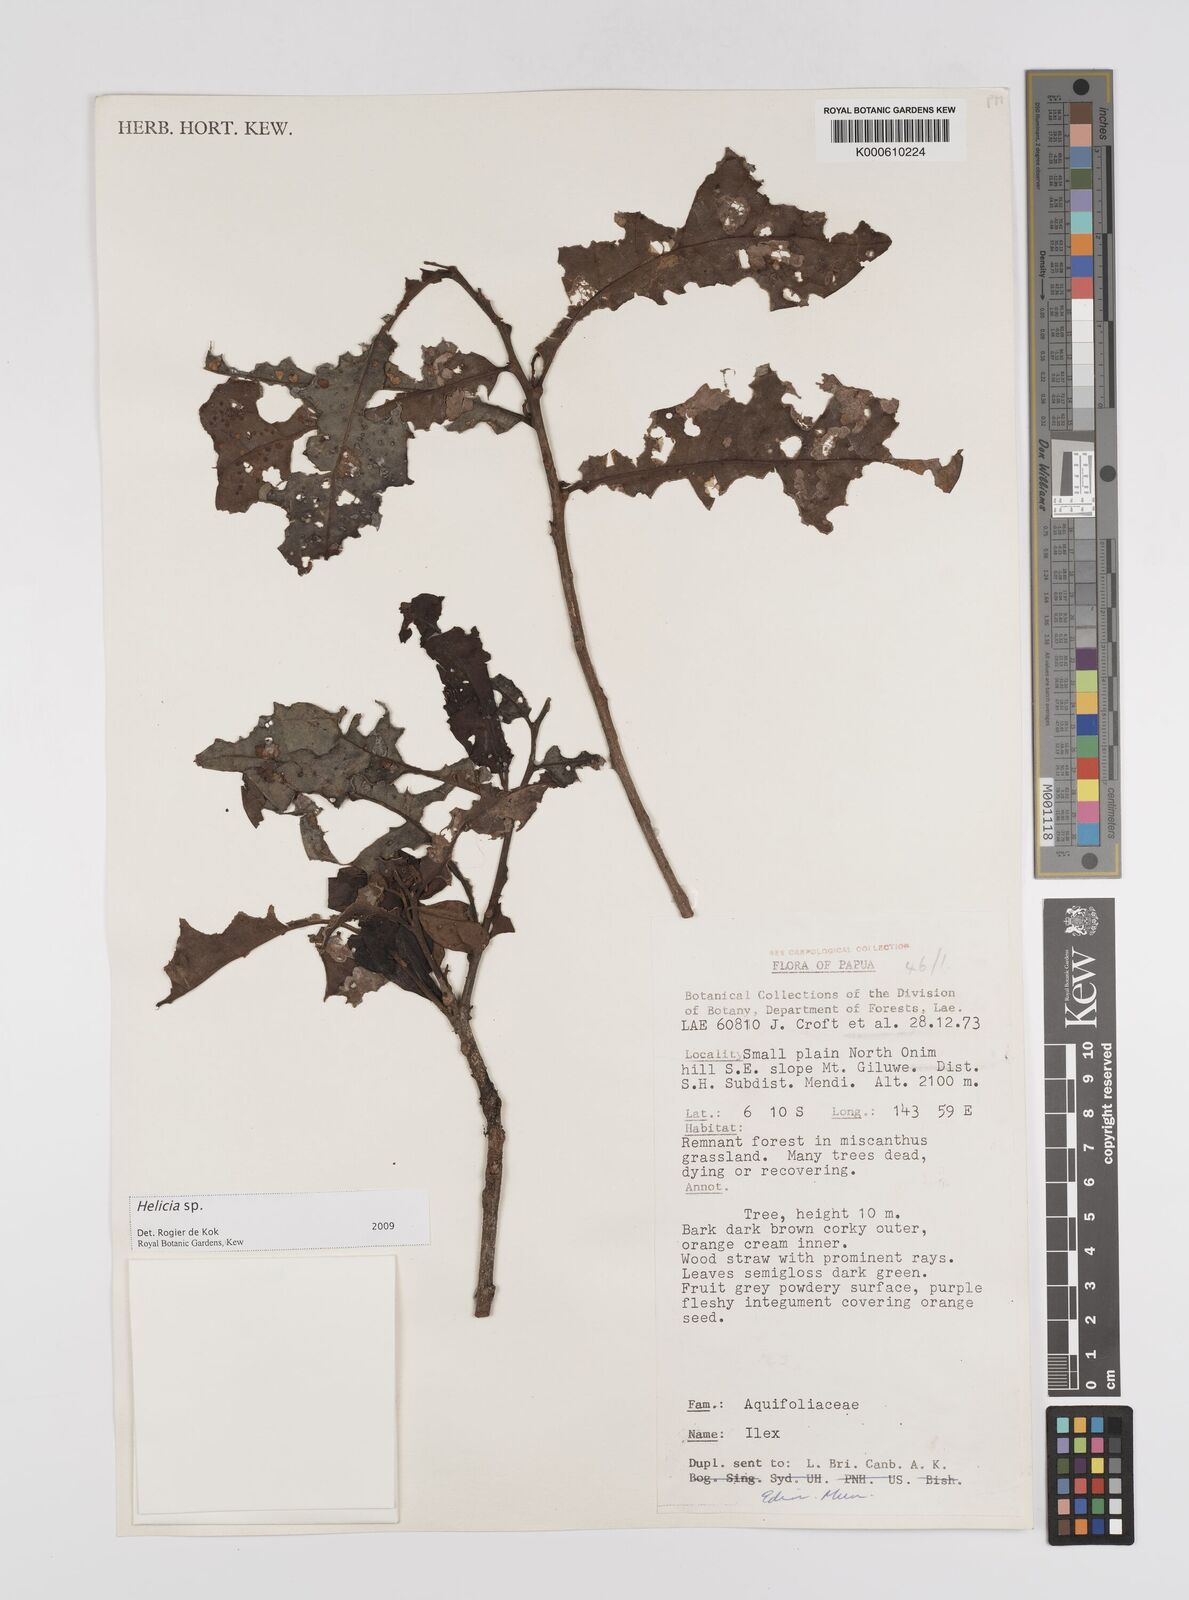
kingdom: Plantae
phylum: Tracheophyta
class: Magnoliopsida
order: Proteales
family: Proteaceae
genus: Helicia
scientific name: Helicia
